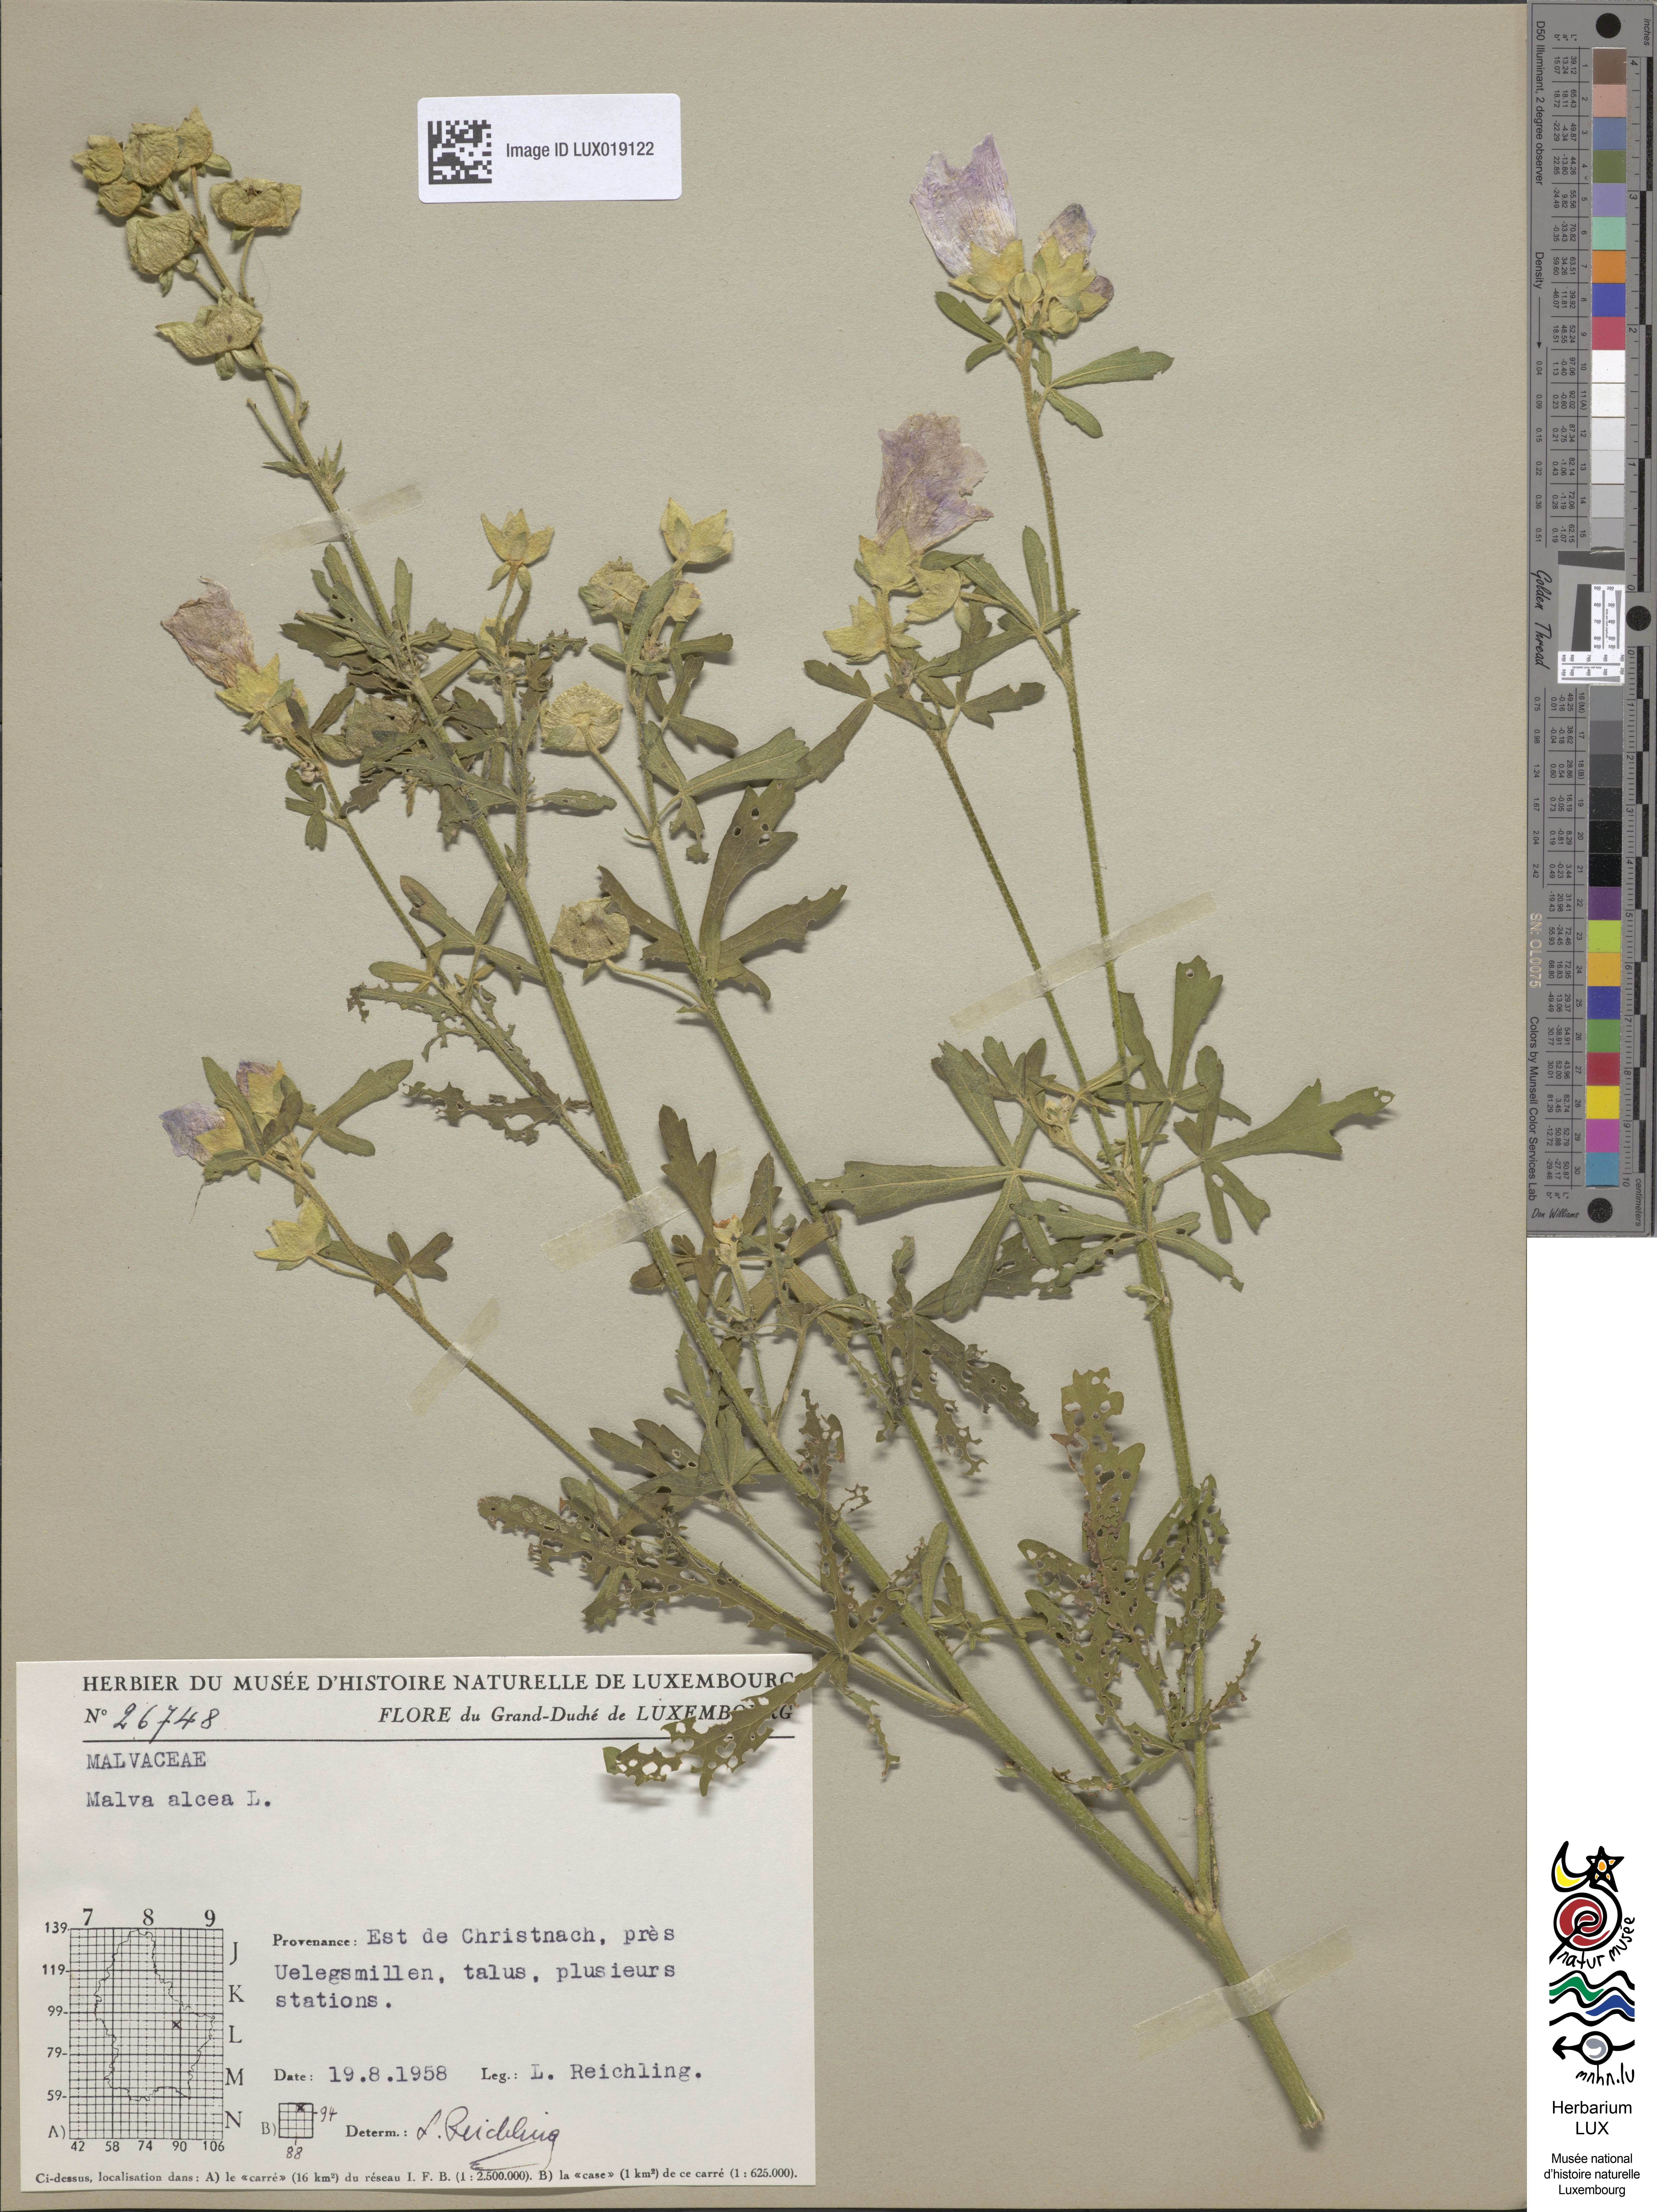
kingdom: Plantae
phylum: Tracheophyta
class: Magnoliopsida
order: Malvales
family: Malvaceae
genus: Malva
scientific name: Malva alcea
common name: Greater musk-mallow
